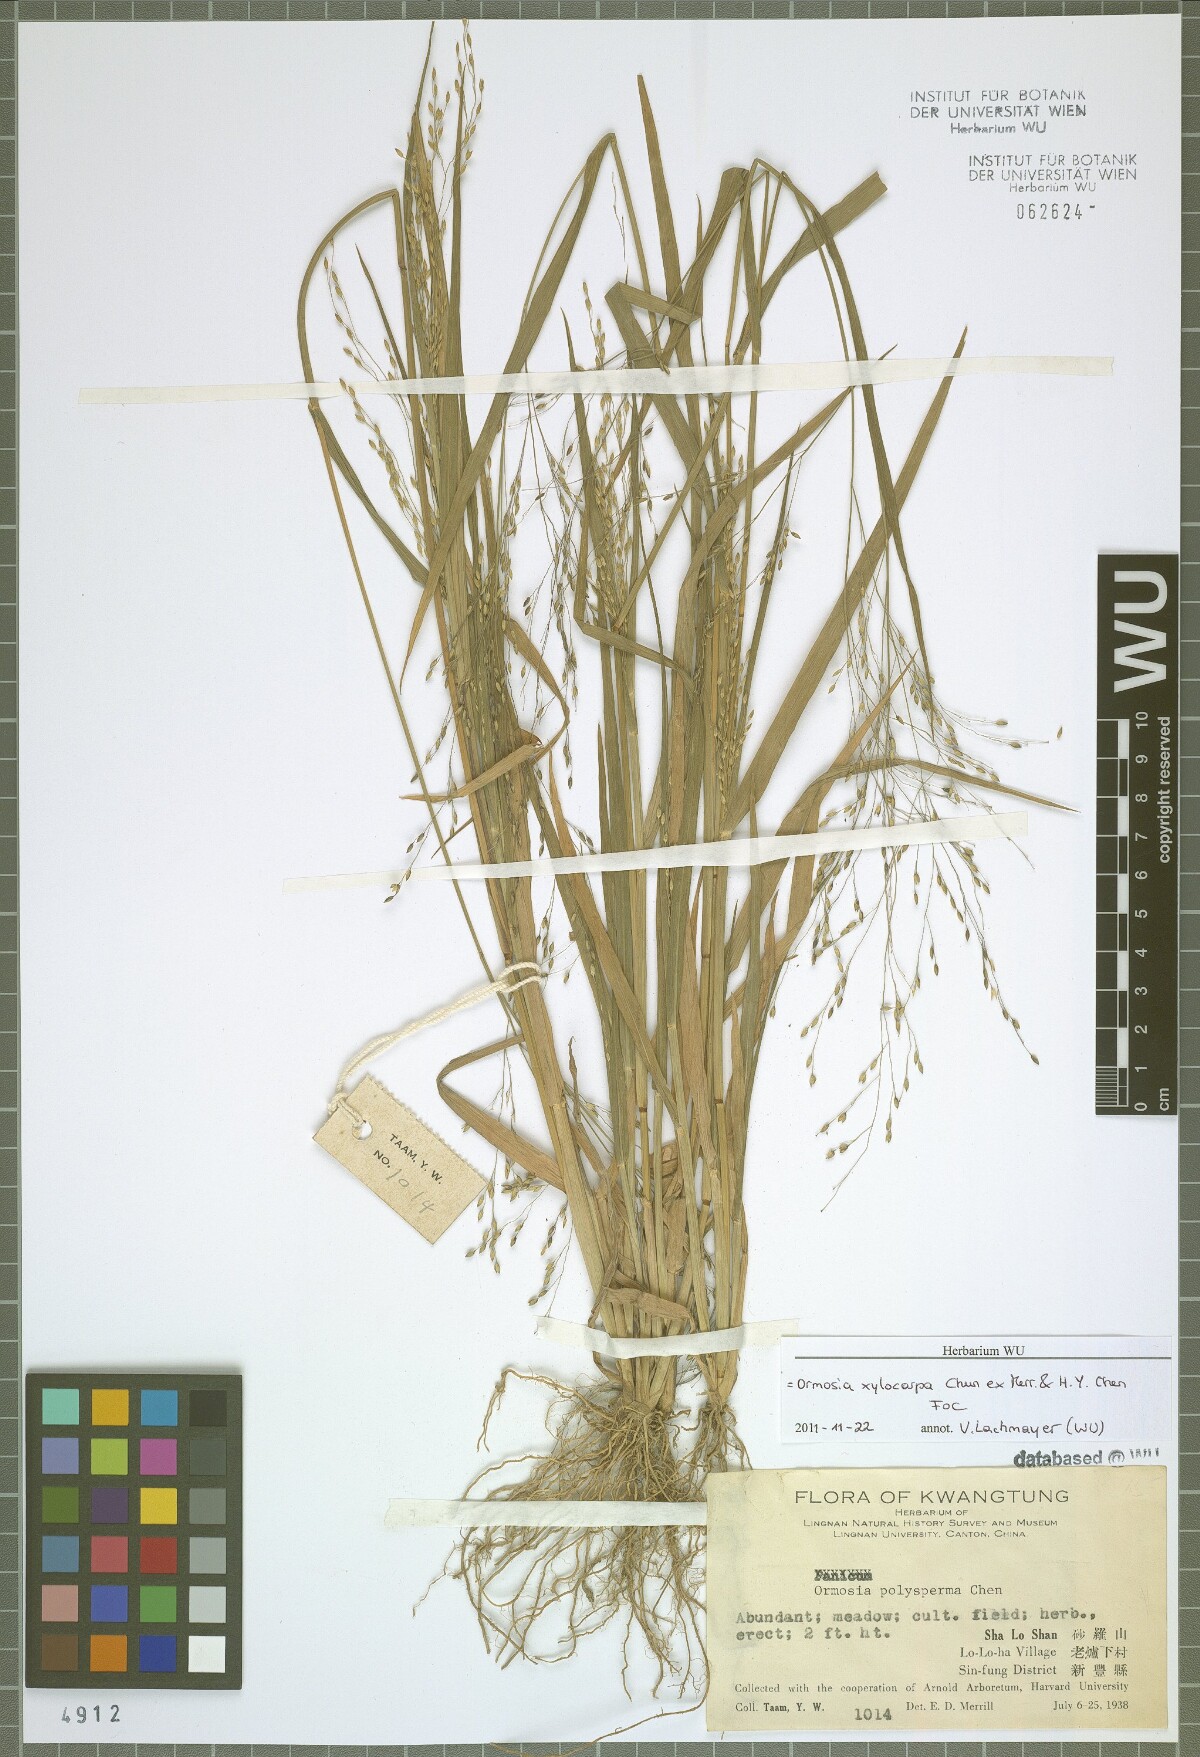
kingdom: Plantae
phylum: Tracheophyta
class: Magnoliopsida
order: Fabales
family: Fabaceae
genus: Ormosia
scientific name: Ormosia xylocarpa
